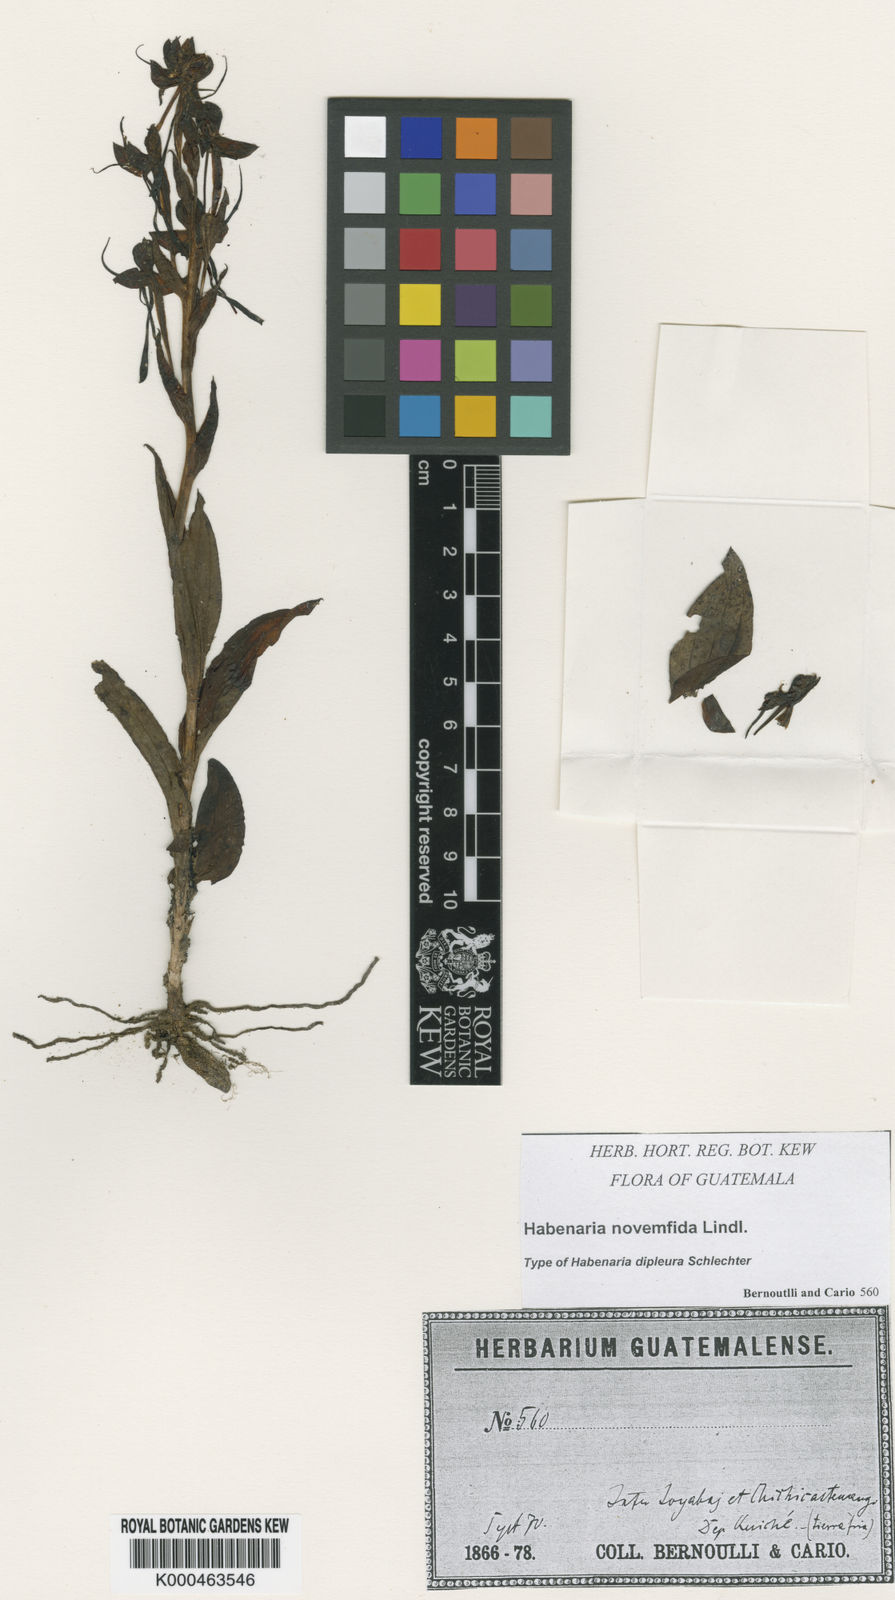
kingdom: Plantae
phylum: Tracheophyta
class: Liliopsida
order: Asparagales
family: Orchidaceae
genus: Habenaria
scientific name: Habenaria jaliscana
